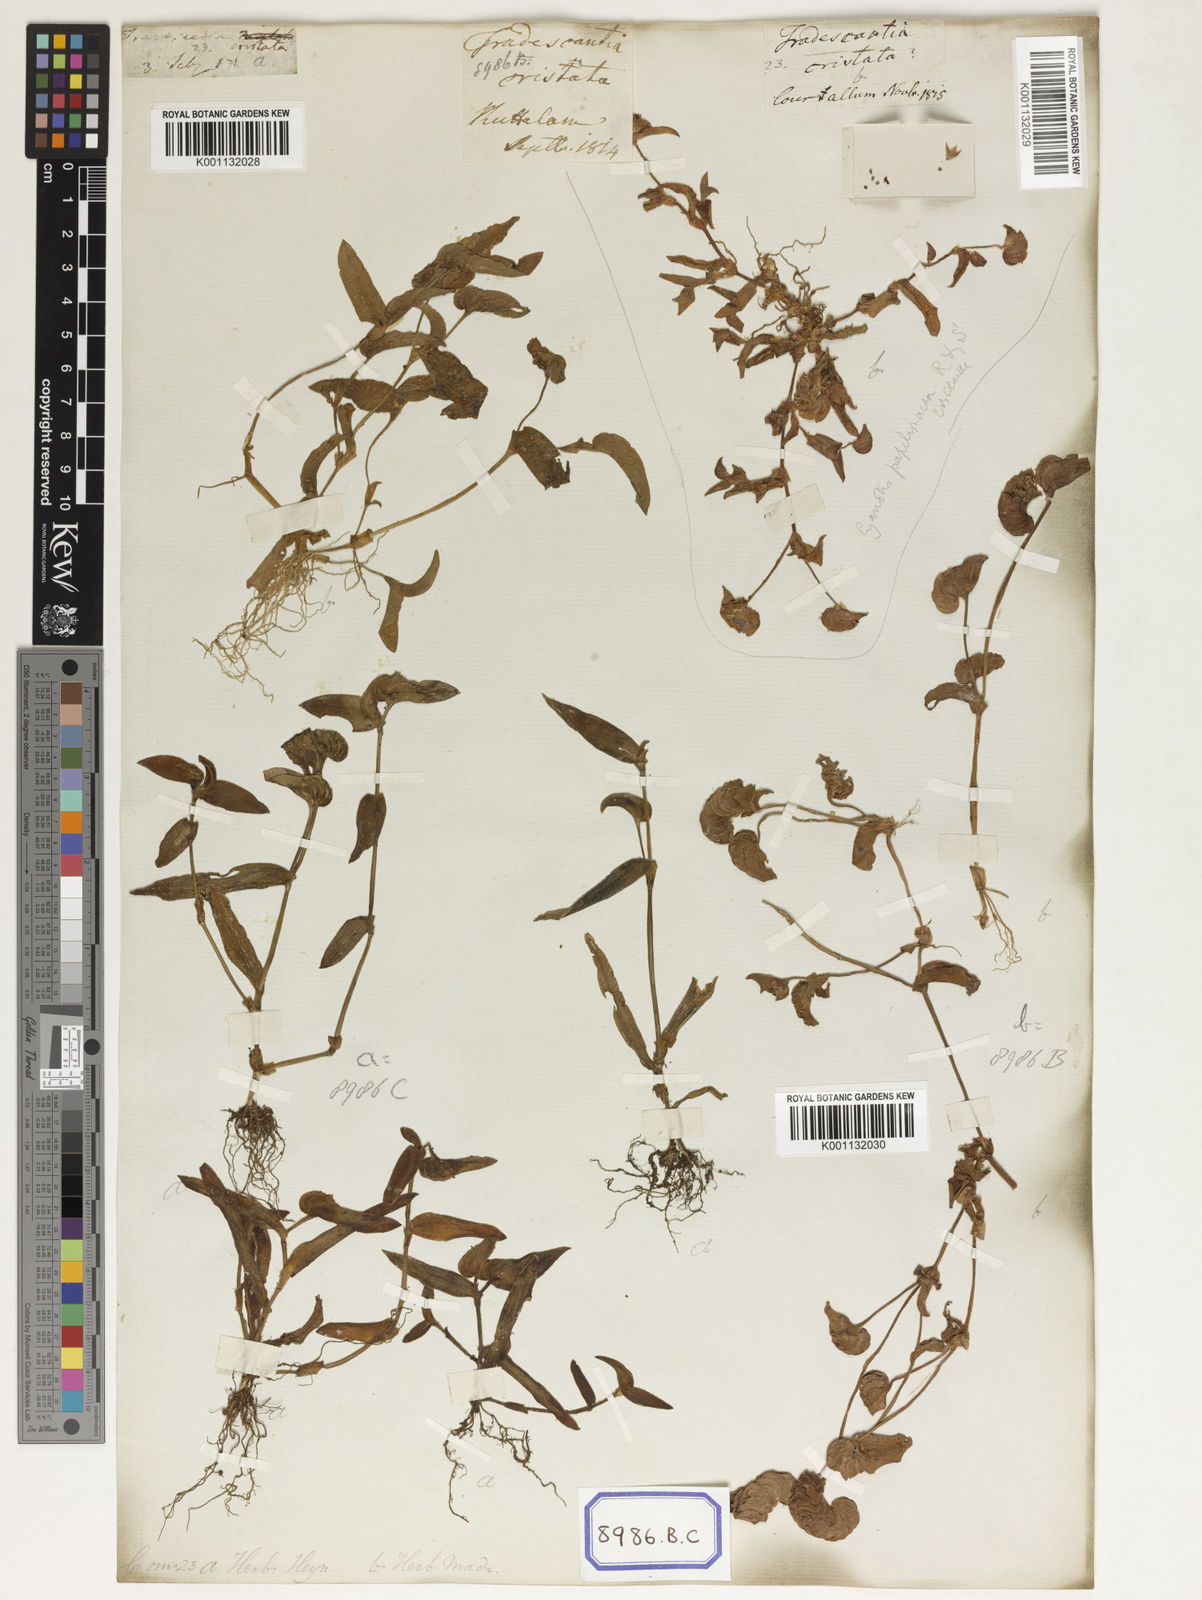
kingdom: Plantae
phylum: Tracheophyta
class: Liliopsida
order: Commelinales
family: Commelinaceae
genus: Cyanotis
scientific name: Cyanotis cristata
